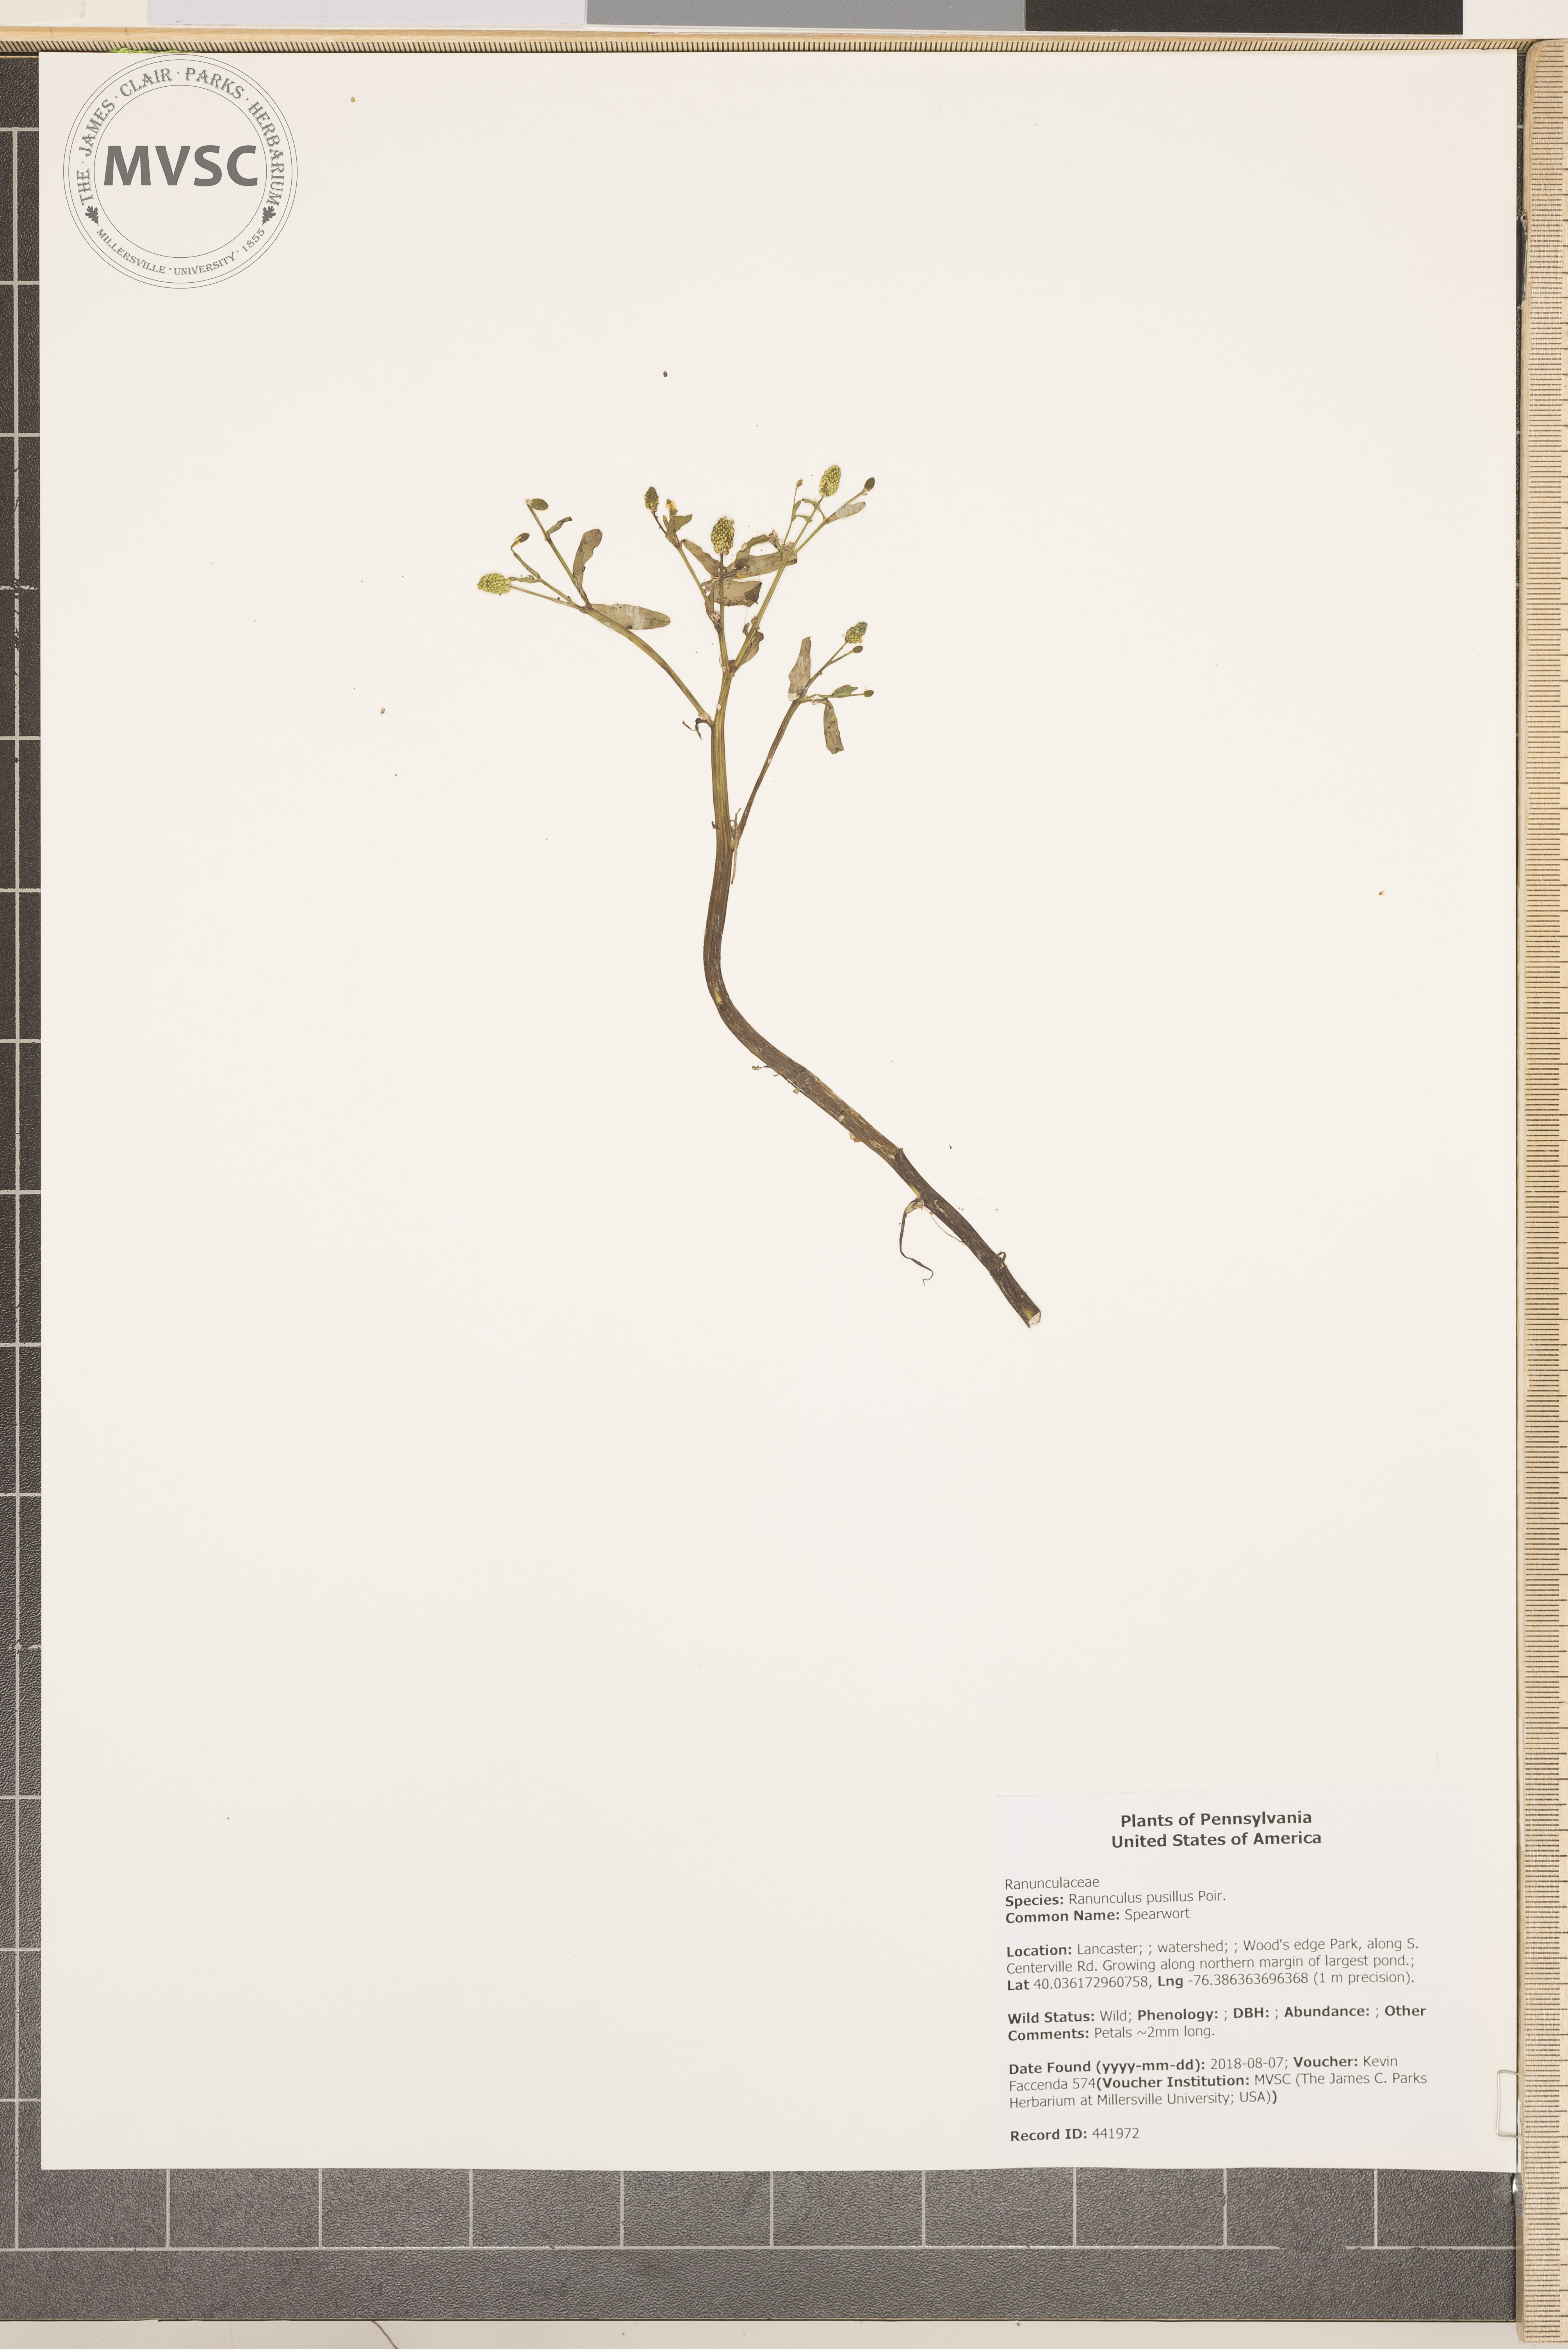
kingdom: Plantae
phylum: Tracheophyta
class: Magnoliopsida
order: Ranunculales
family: Ranunculaceae
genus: Ranunculus
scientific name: Ranunculus pusillus
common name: Spearwort
